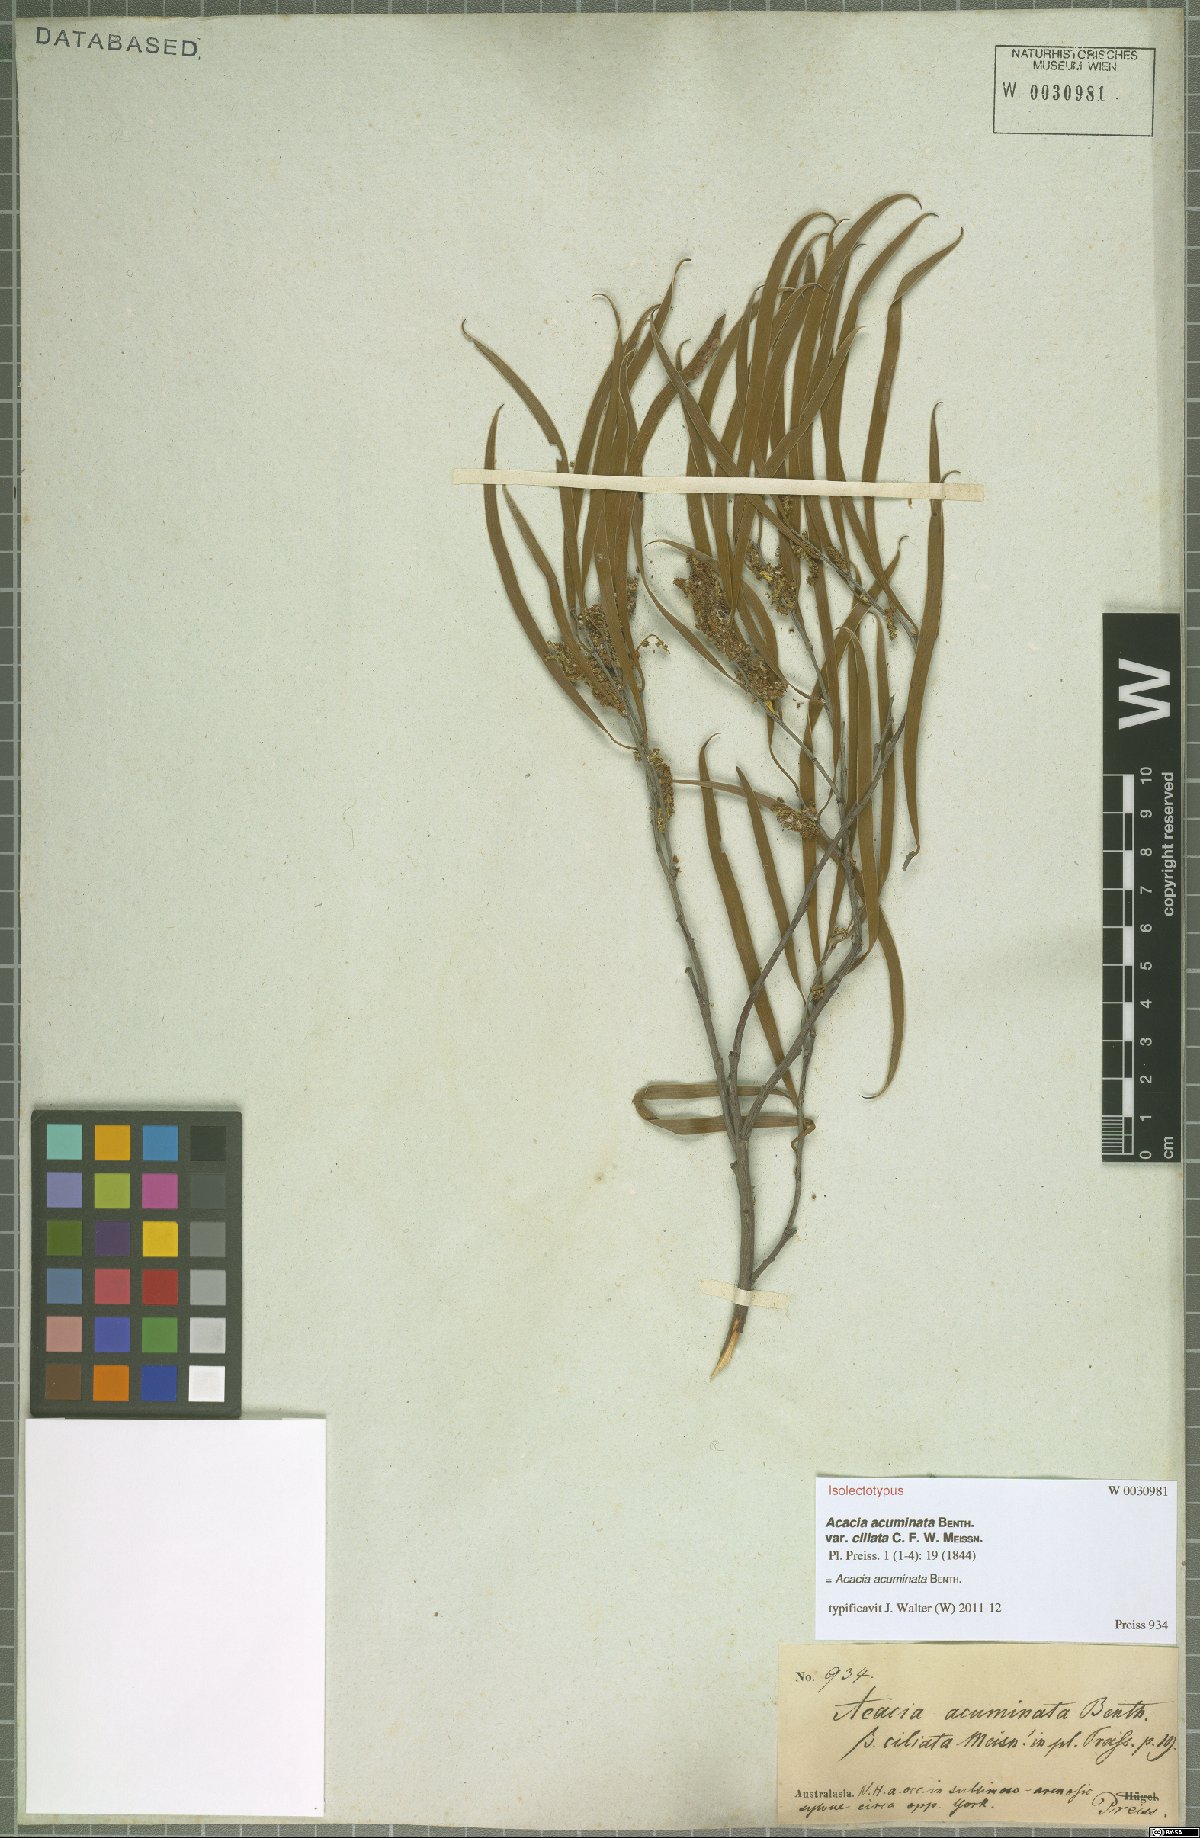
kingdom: Plantae
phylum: Tracheophyta
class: Magnoliopsida
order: Fabales
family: Fabaceae
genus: Acacia
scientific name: Acacia acuminata
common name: Jam wattle
